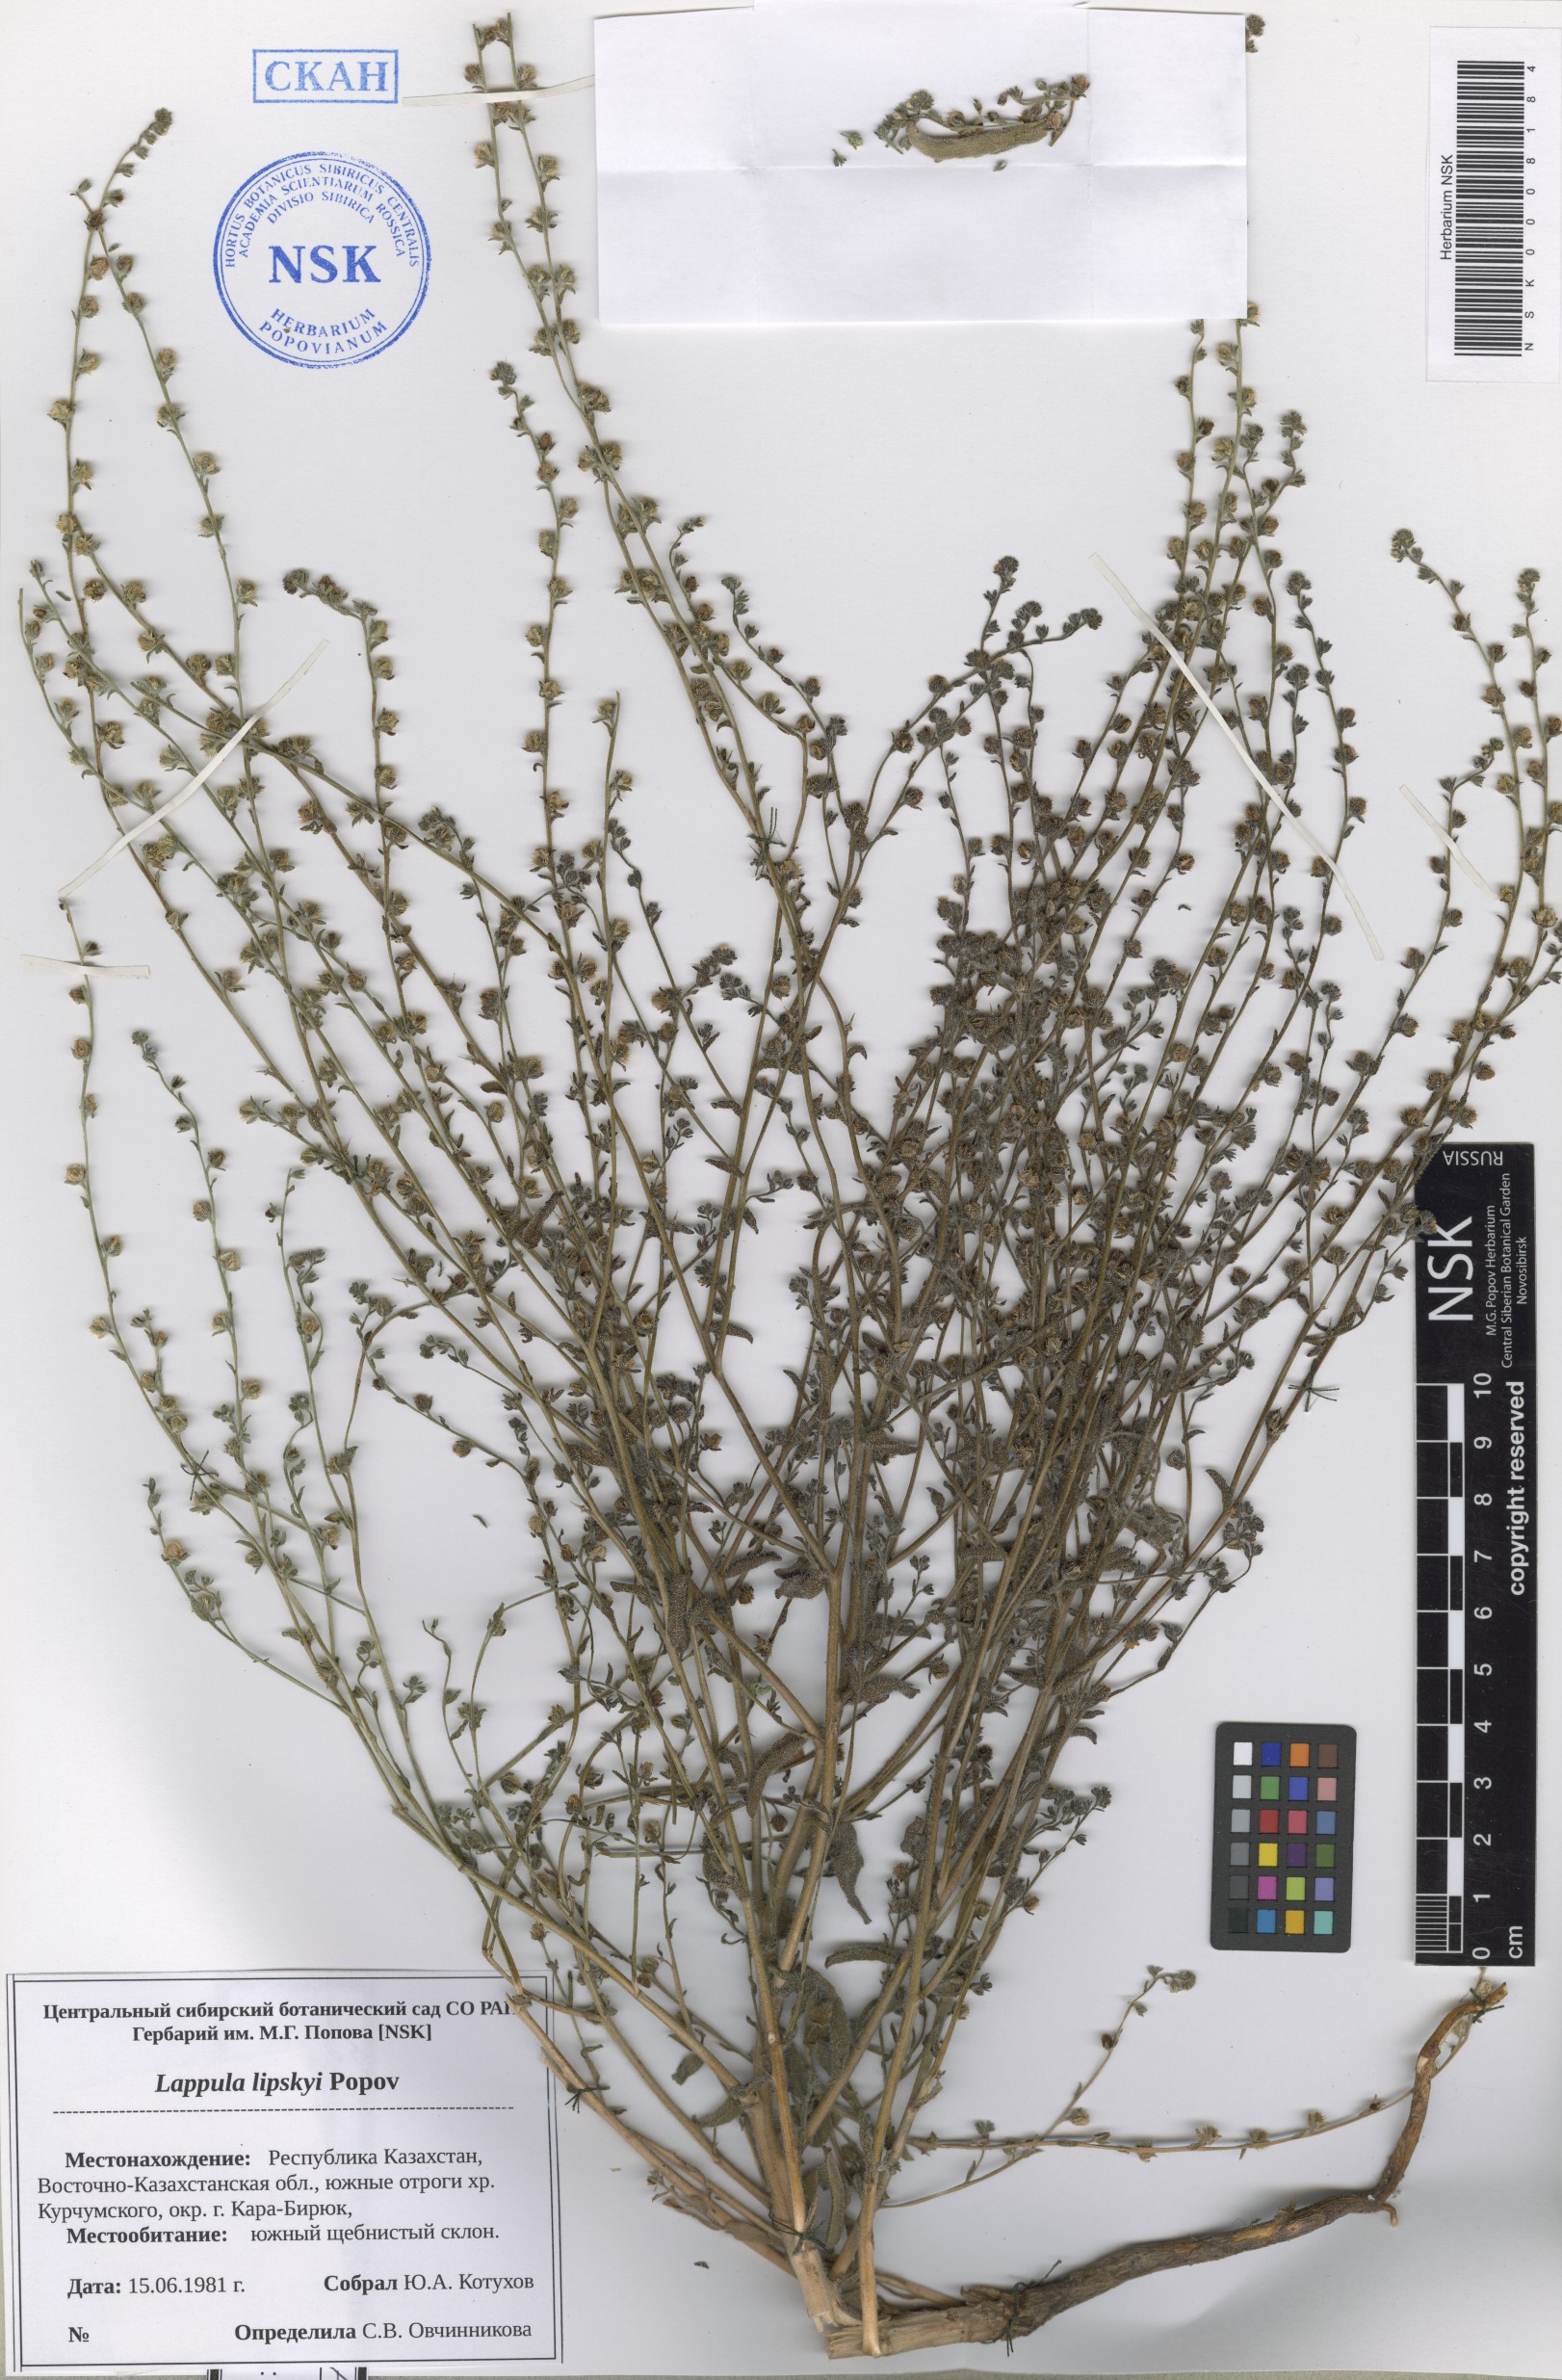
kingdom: Plantae
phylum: Tracheophyta
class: Magnoliopsida
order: Boraginales
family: Boraginaceae
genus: Lappula
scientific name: Lappula lipskyi
